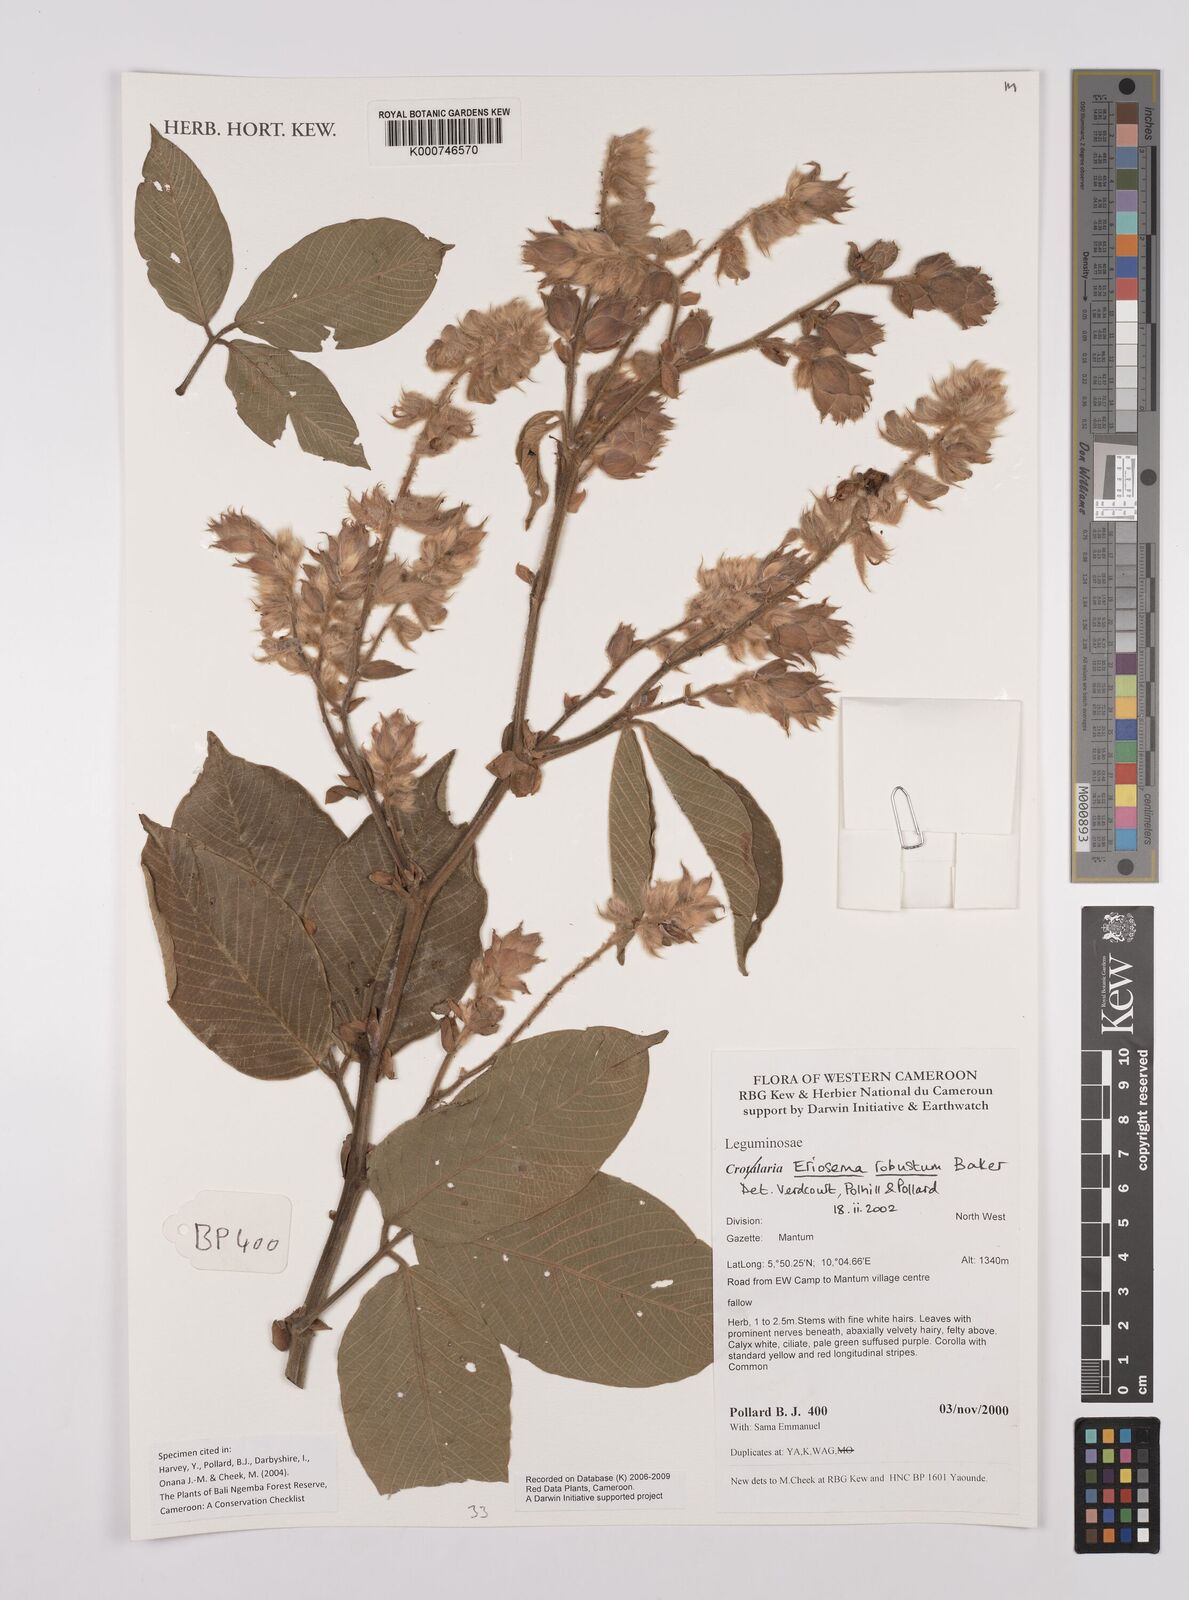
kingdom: Plantae
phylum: Tracheophyta
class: Magnoliopsida
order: Fabales
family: Fabaceae
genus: Eriosema
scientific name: Eriosema robustum
